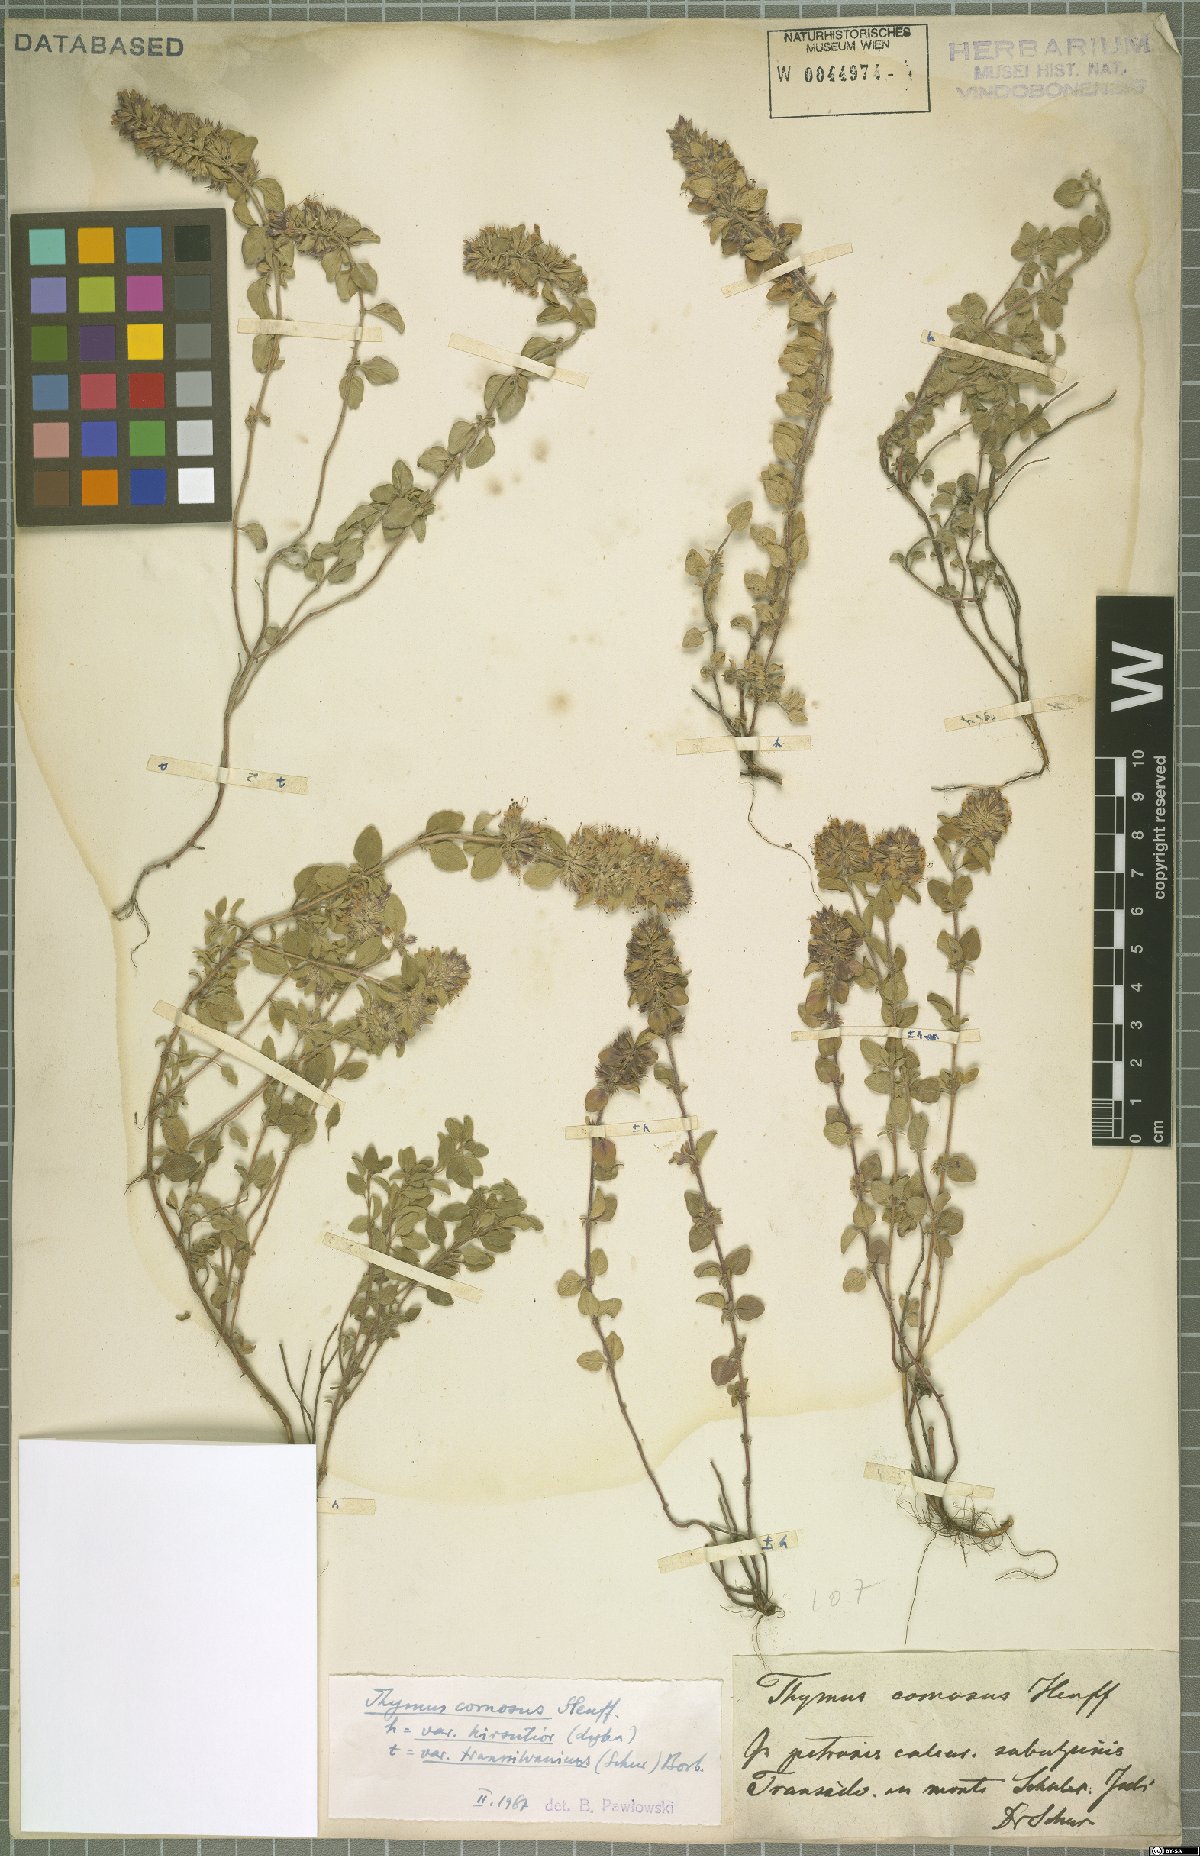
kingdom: Plantae
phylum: Tracheophyta
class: Magnoliopsida
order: Lamiales
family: Lamiaceae
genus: Thymus
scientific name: Thymus comosus
